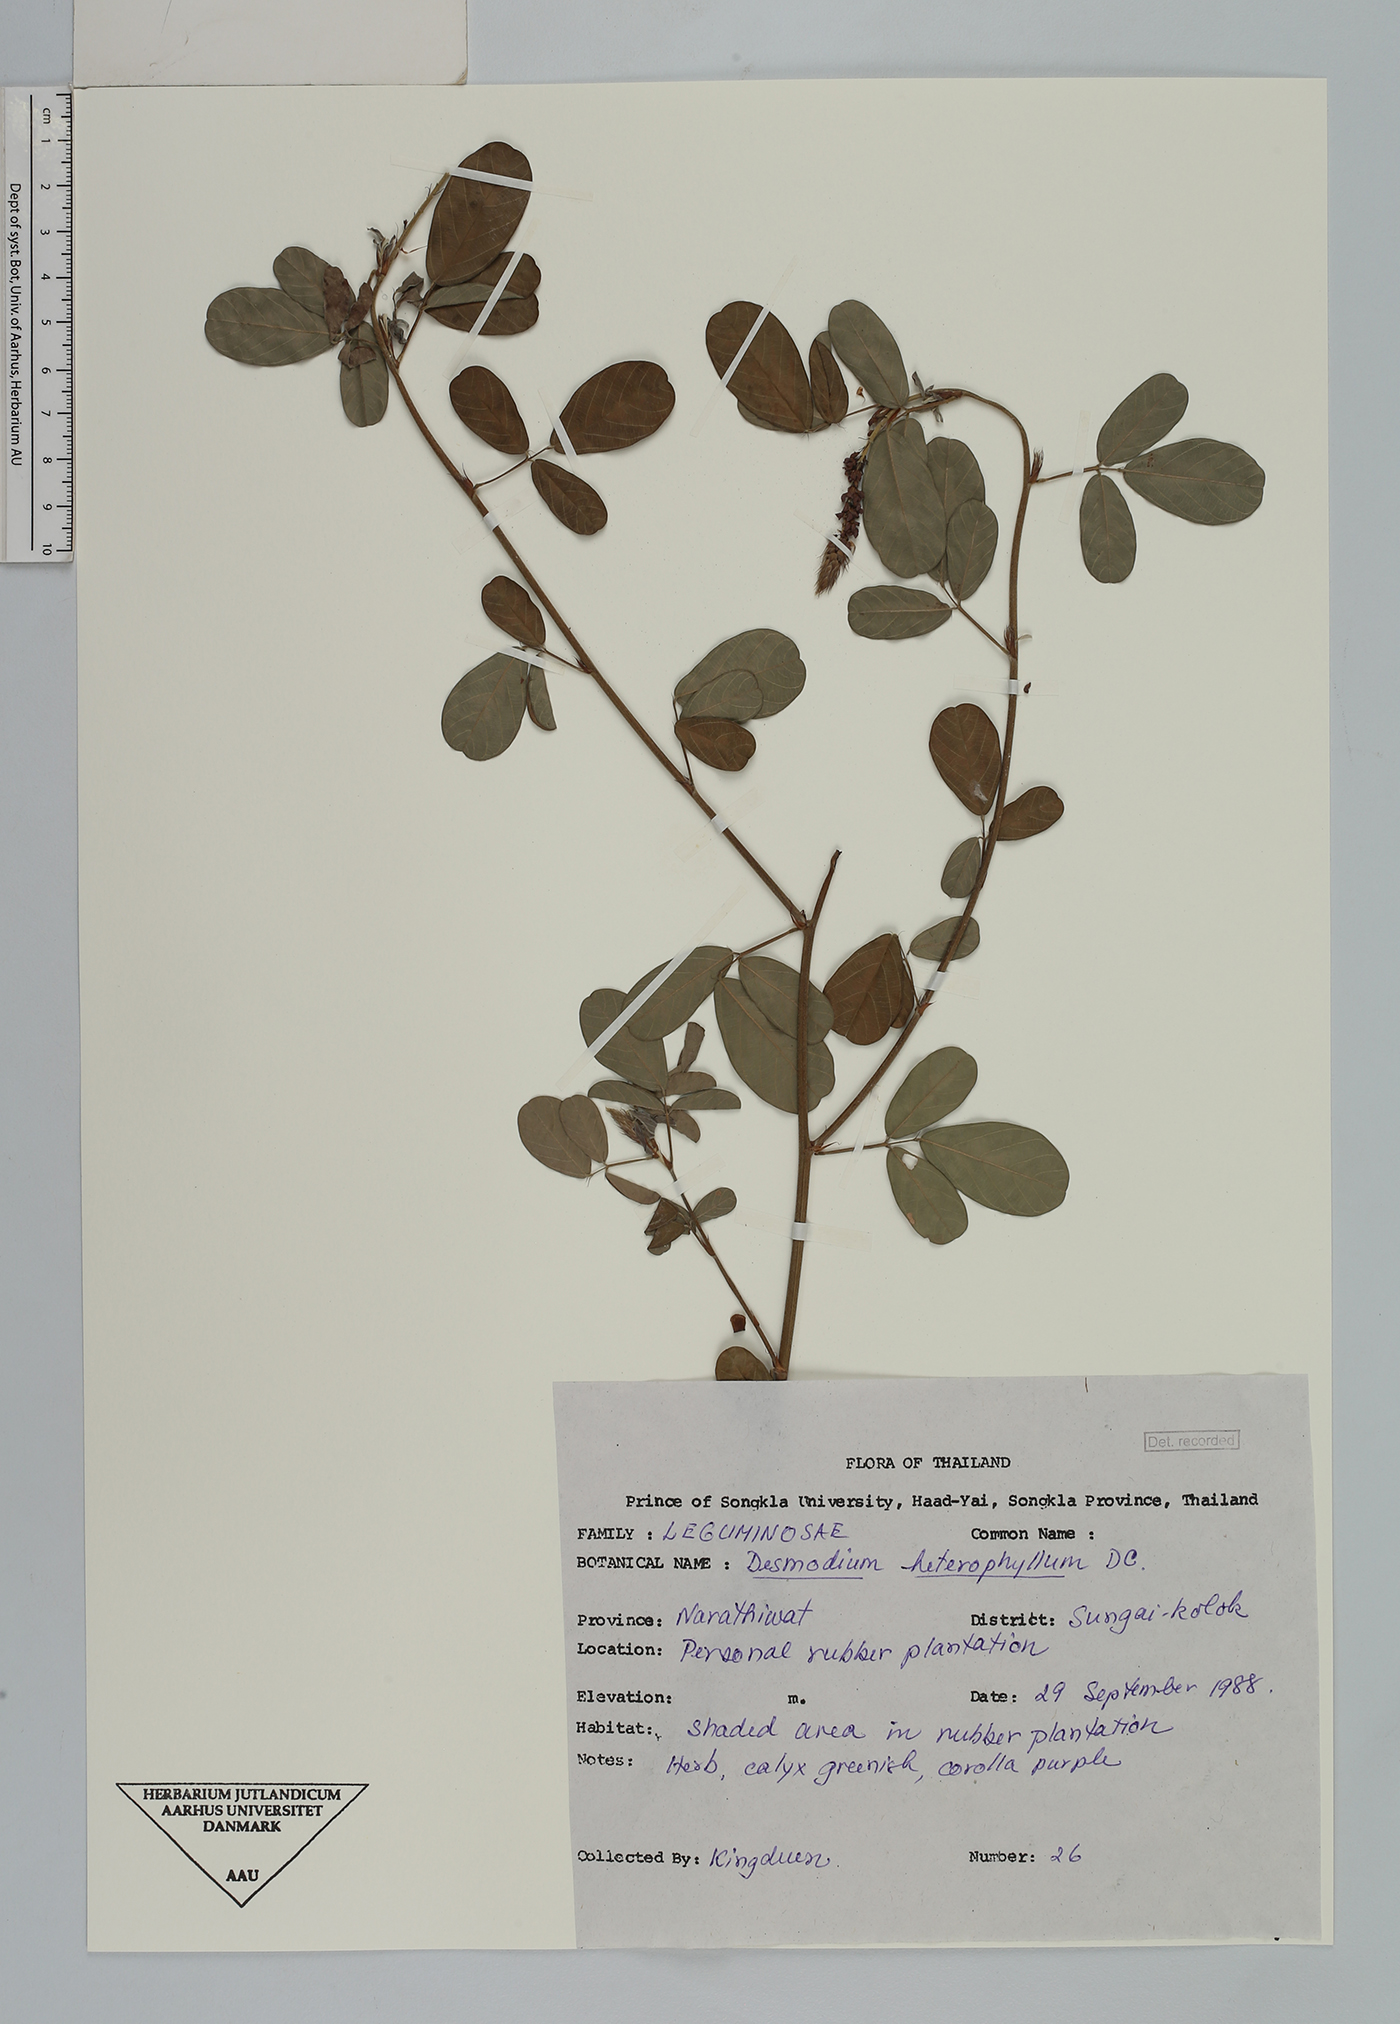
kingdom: Plantae
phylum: Tracheophyta
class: Magnoliopsida
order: Fabales
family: Fabaceae
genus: Grona
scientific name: Grona heterocarpos
